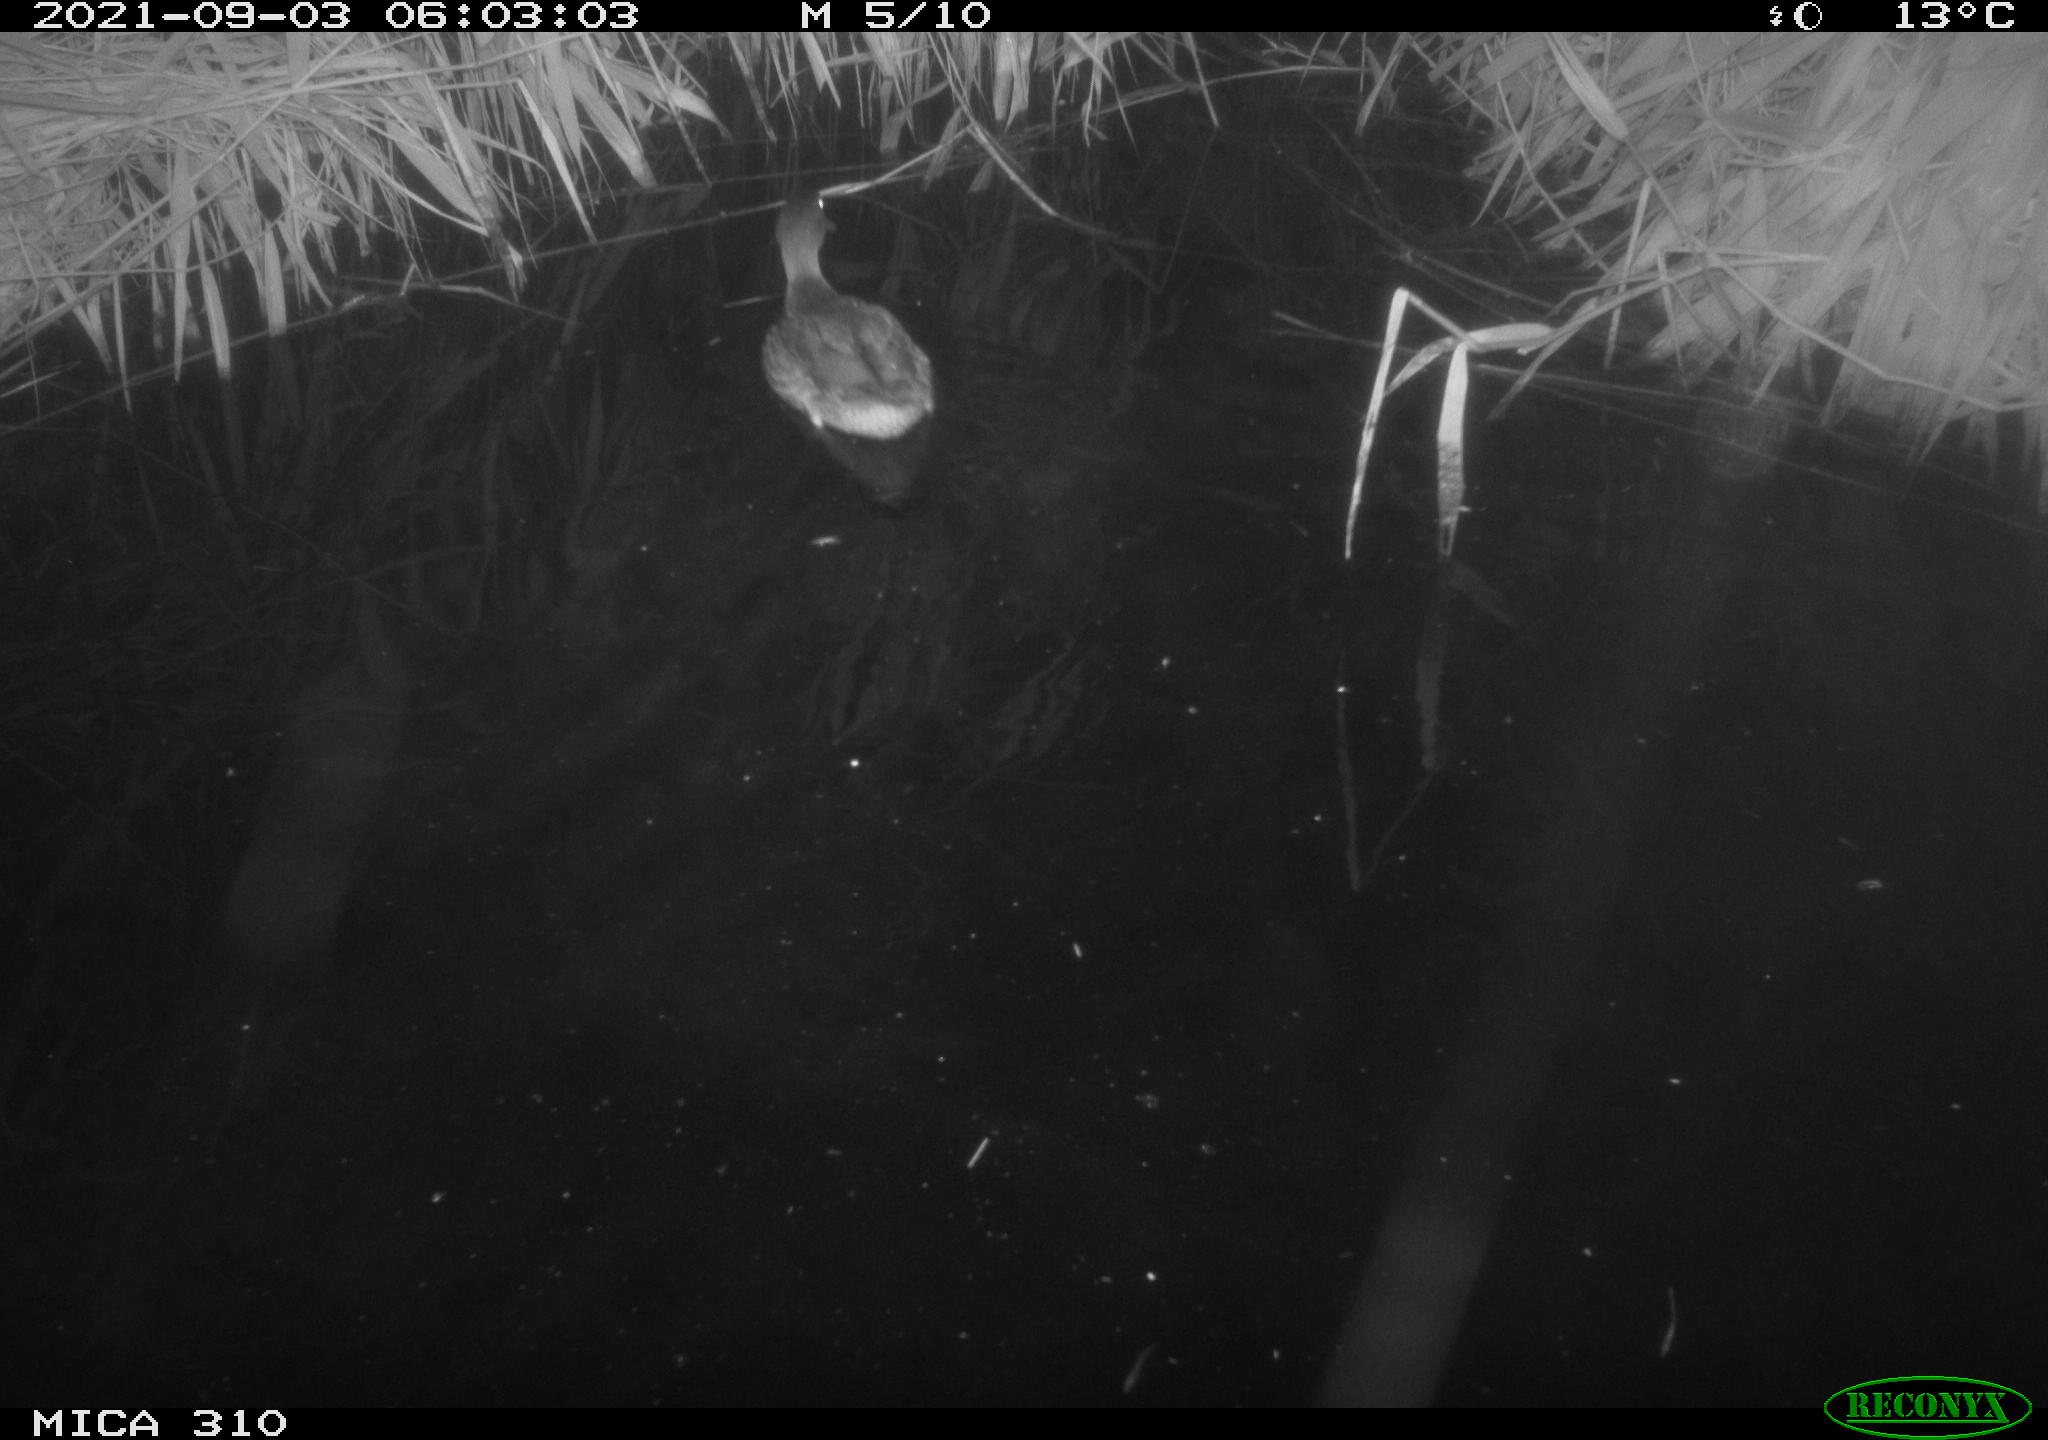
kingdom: Animalia
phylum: Chordata
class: Aves
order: Anseriformes
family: Anatidae
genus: Anas
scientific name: Anas platyrhynchos
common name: Mallard
